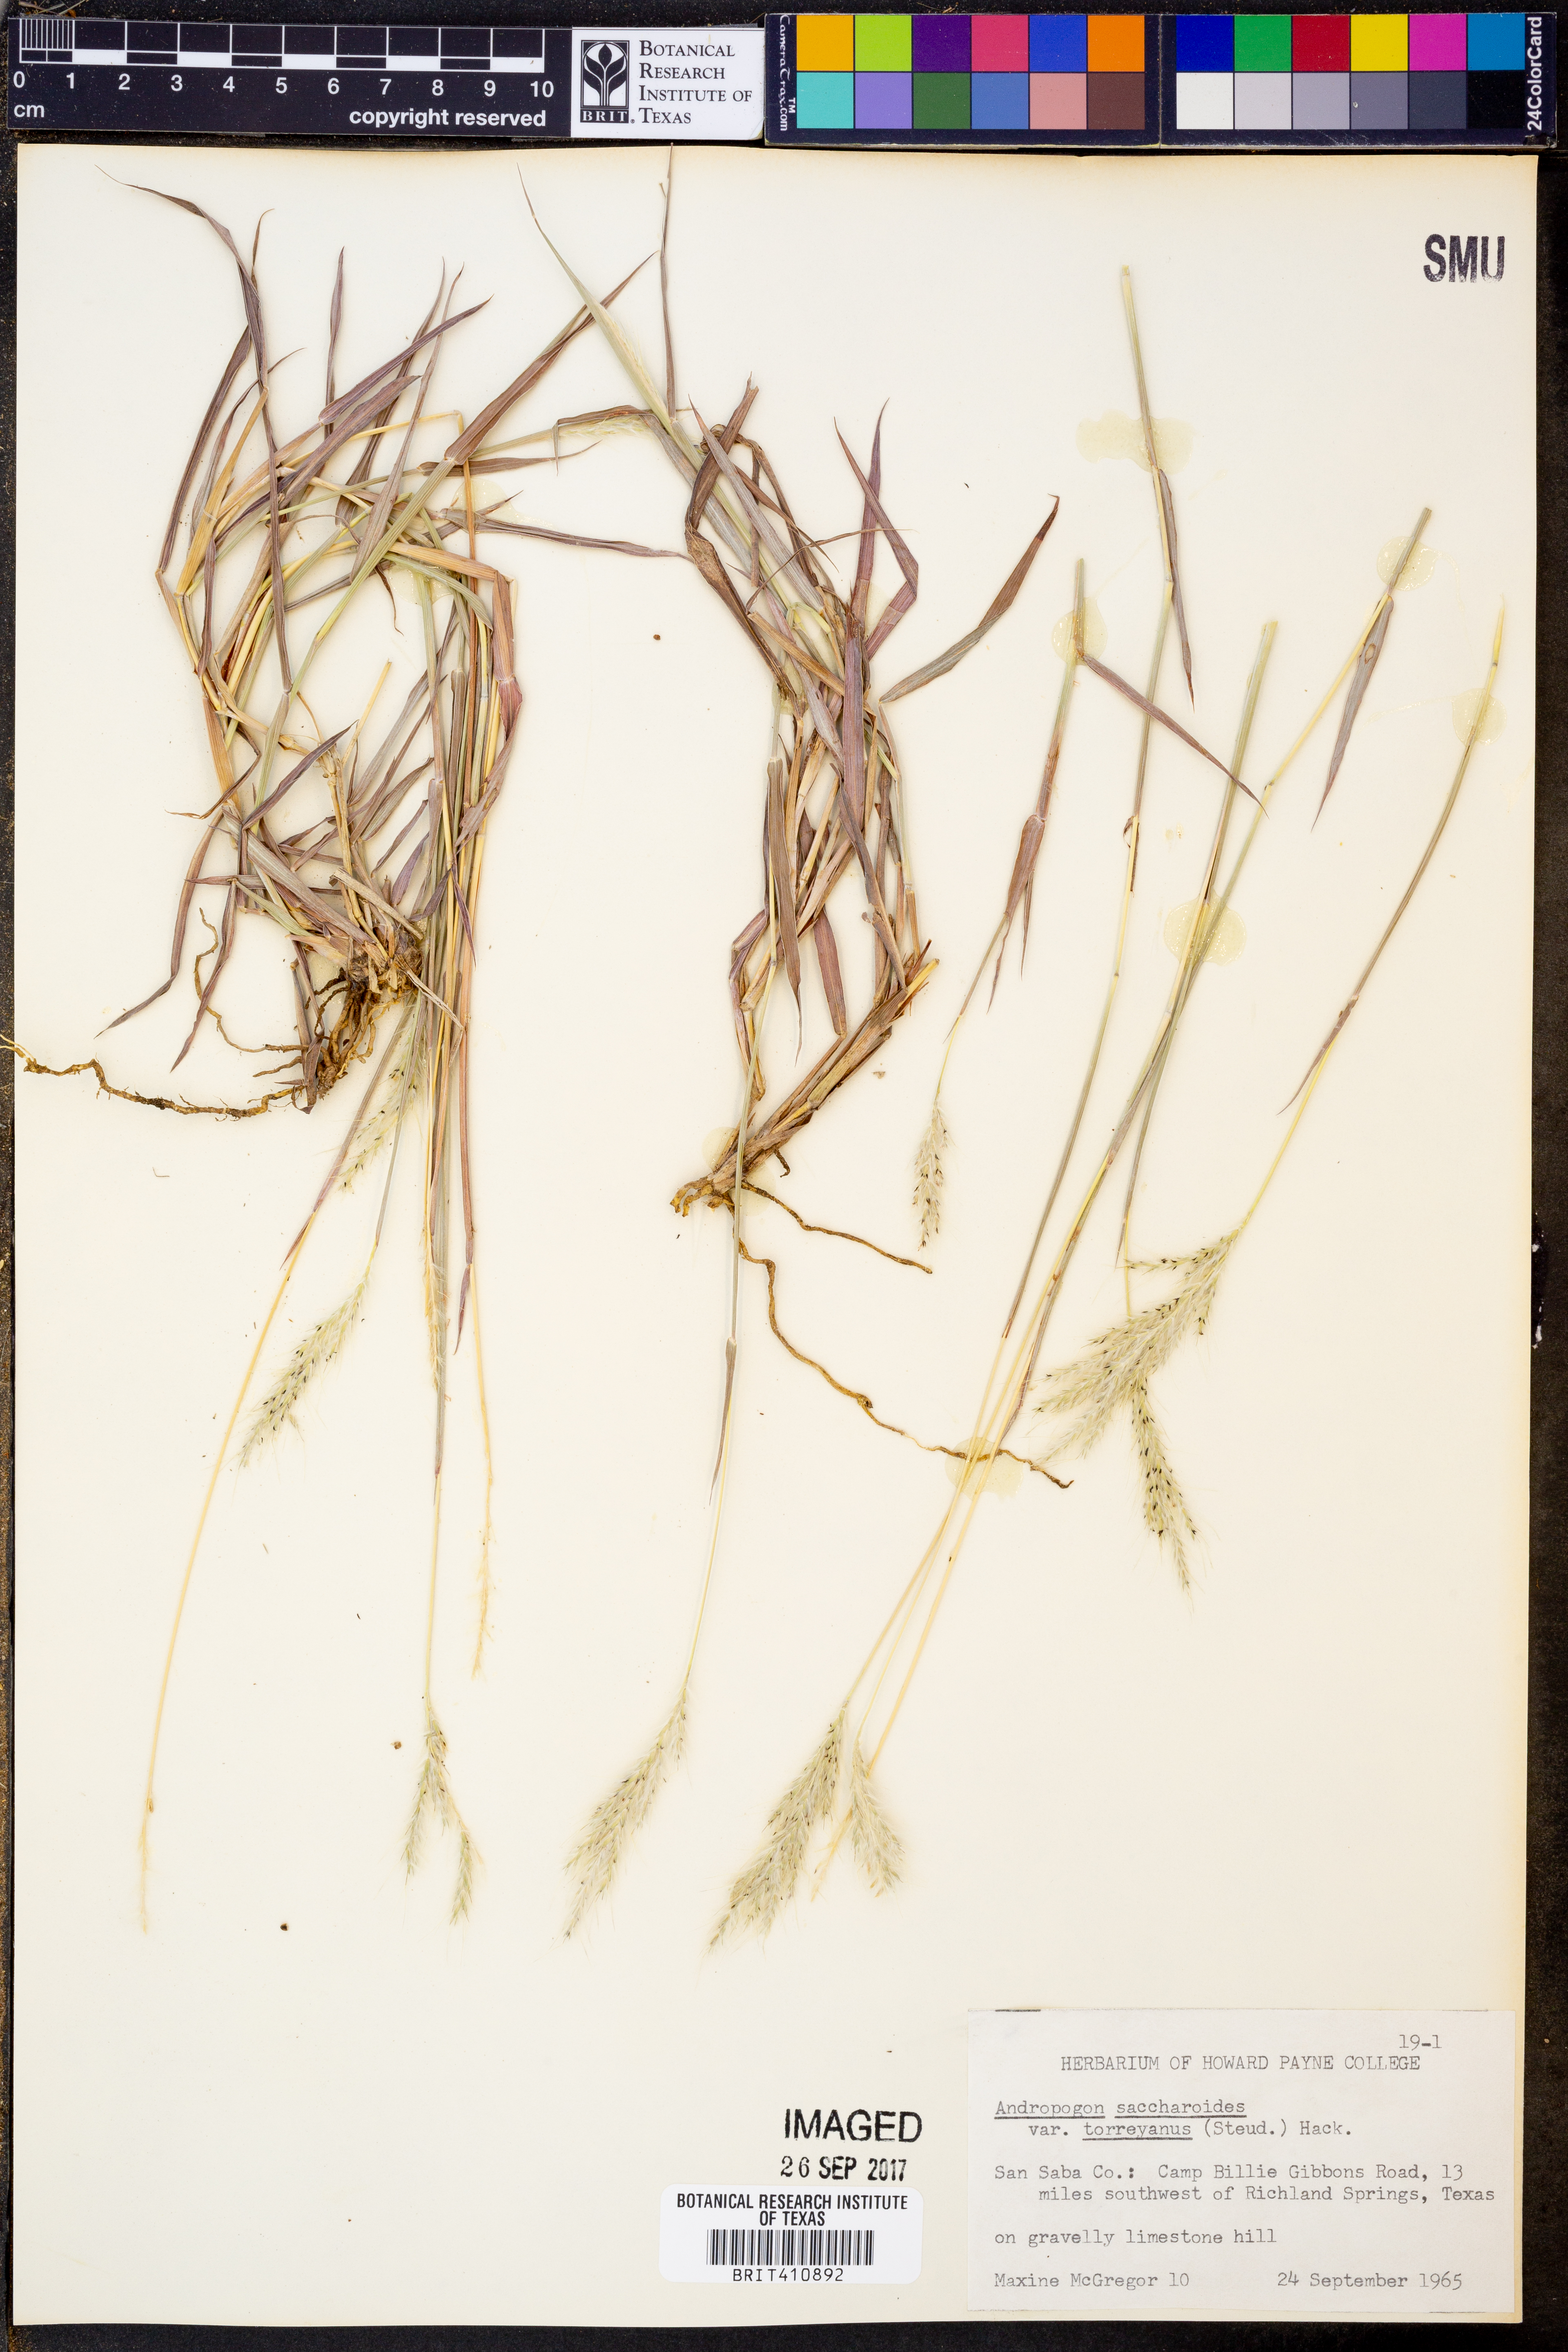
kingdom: Plantae
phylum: Tracheophyta
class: Liliopsida
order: Poales
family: Poaceae
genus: Bothriochloa
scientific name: Bothriochloa torreyana
